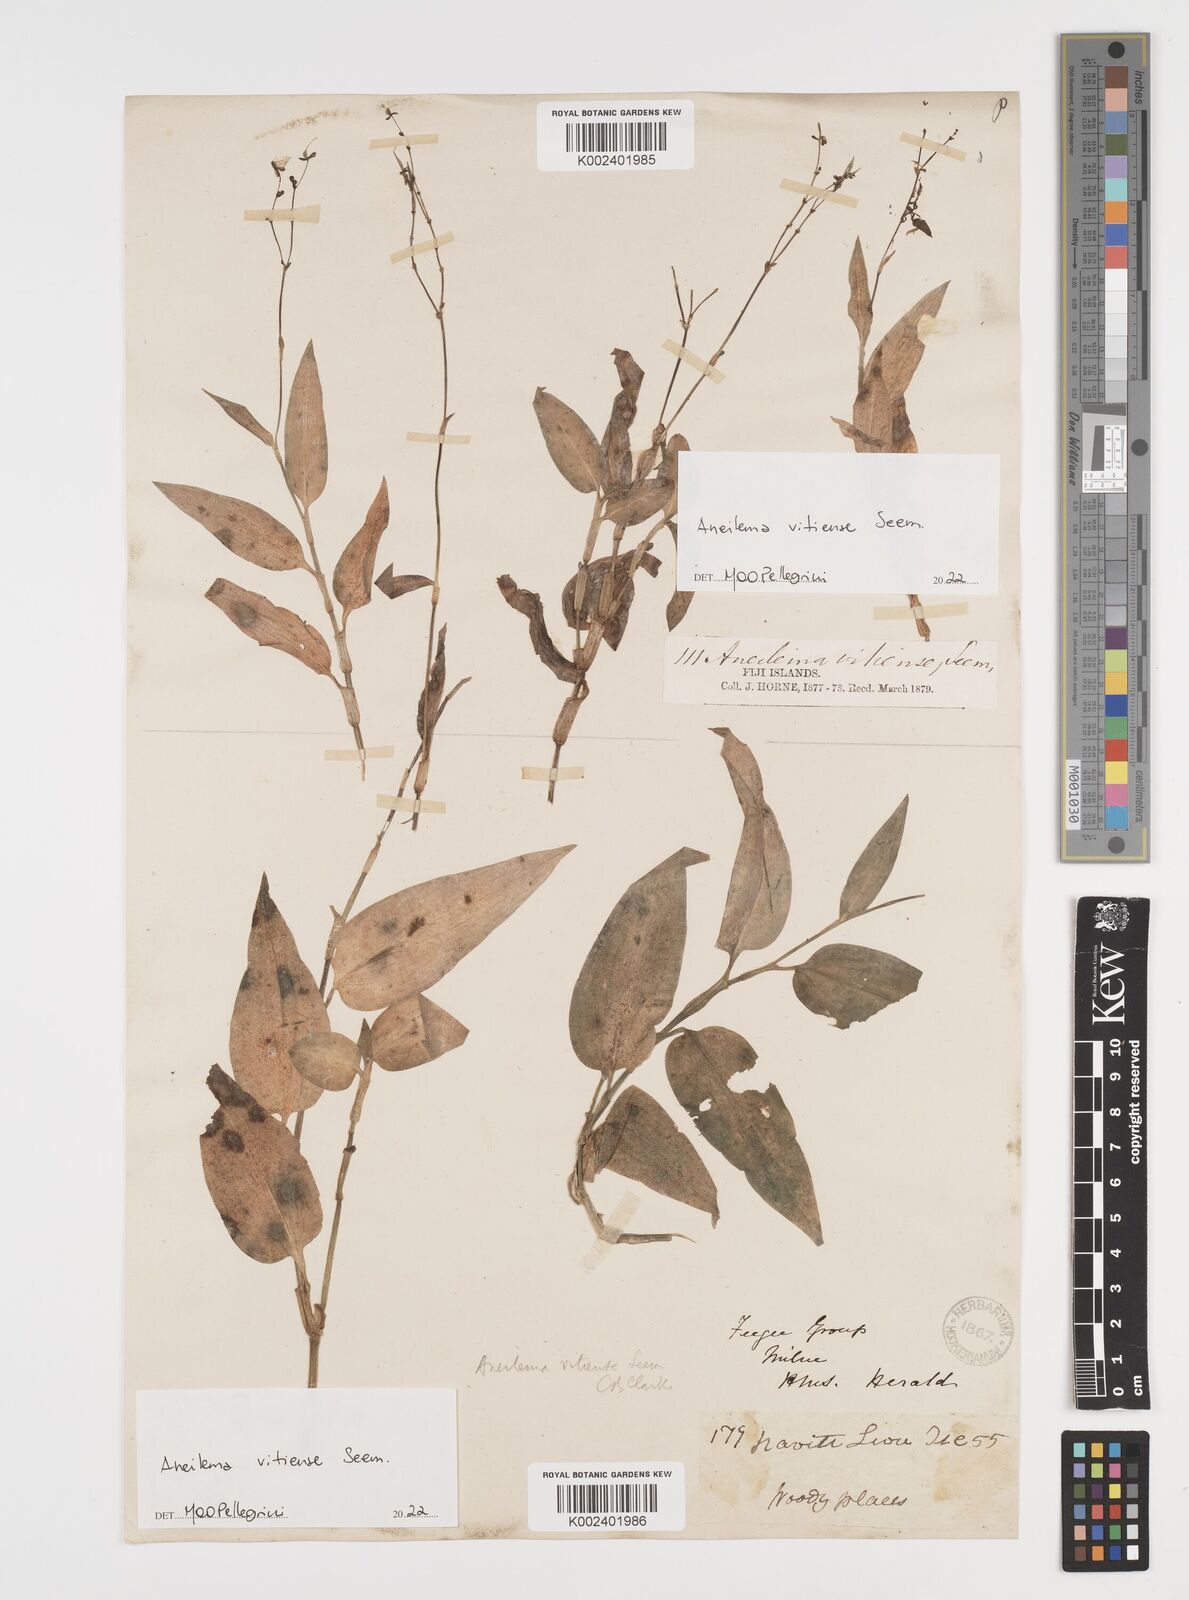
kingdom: Plantae
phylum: Tracheophyta
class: Liliopsida
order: Commelinales
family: Commelinaceae
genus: Rhopalephora
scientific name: Rhopalephora vitiensis
